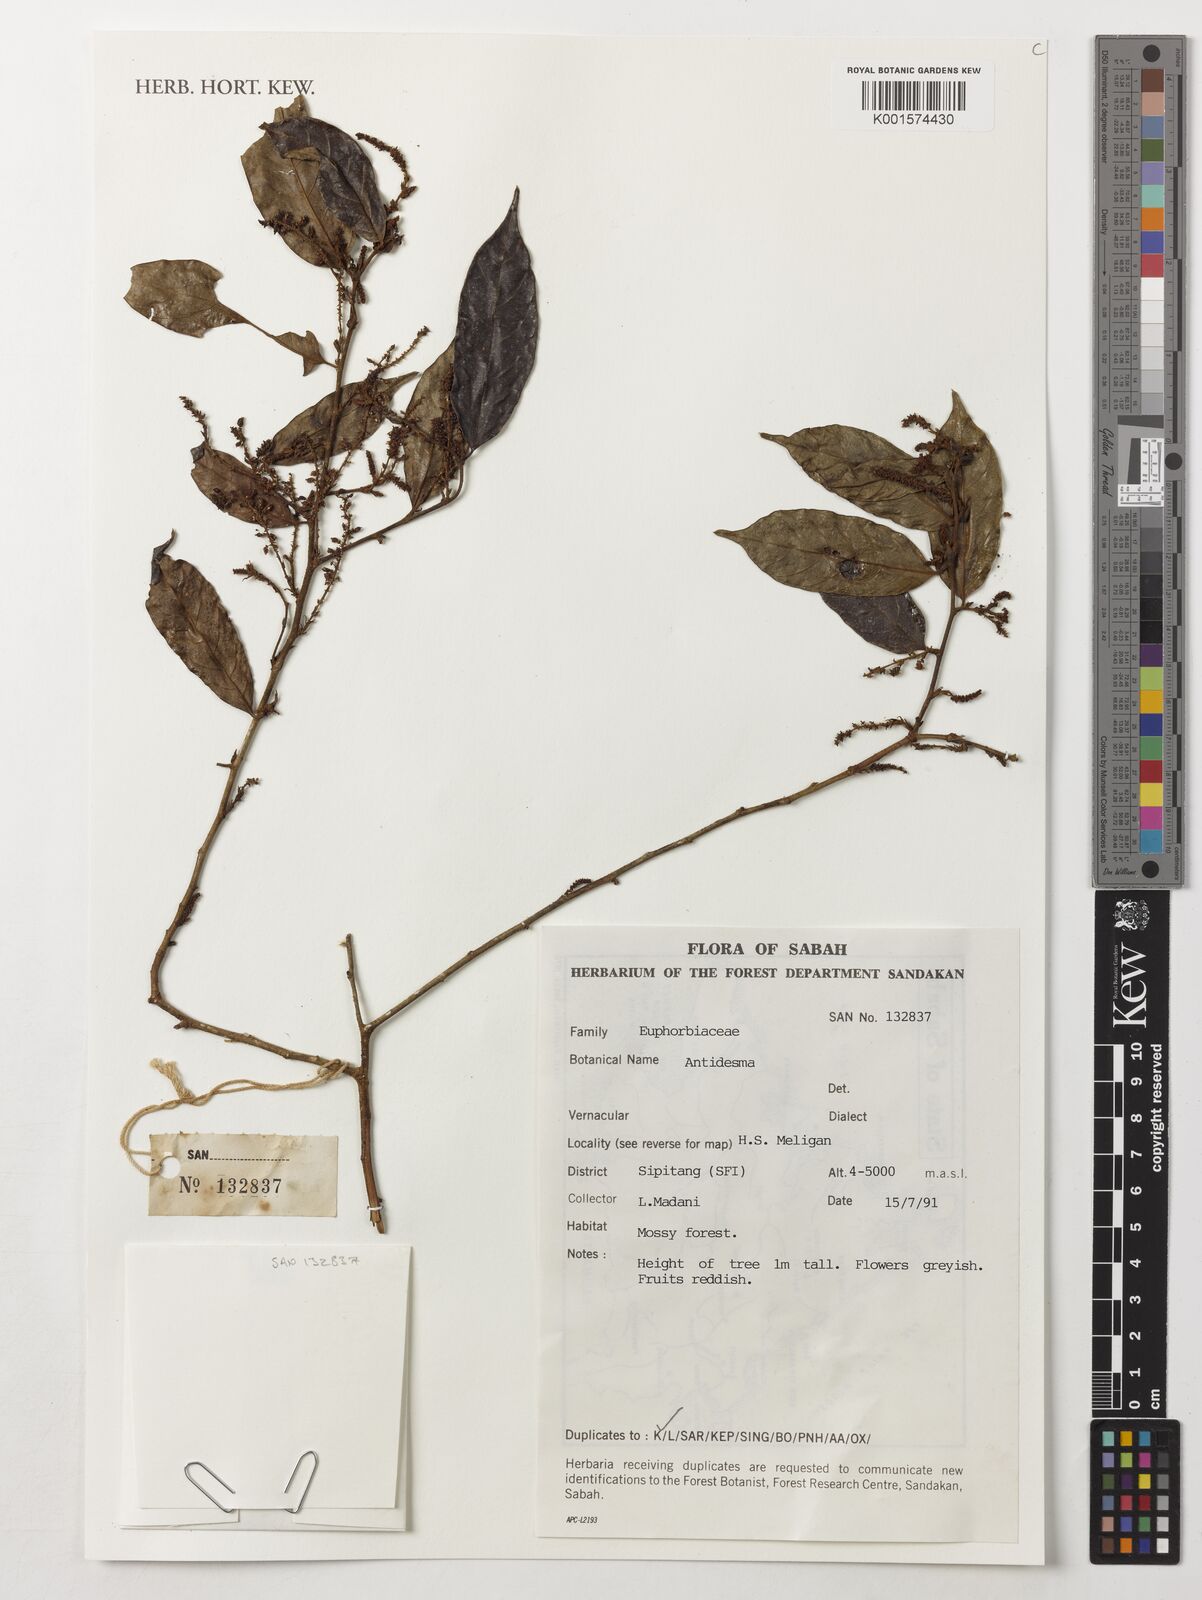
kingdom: Plantae
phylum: Tracheophyta
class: Magnoliopsida
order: Malpighiales
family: Phyllanthaceae
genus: Antidesma
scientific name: Antidesma
